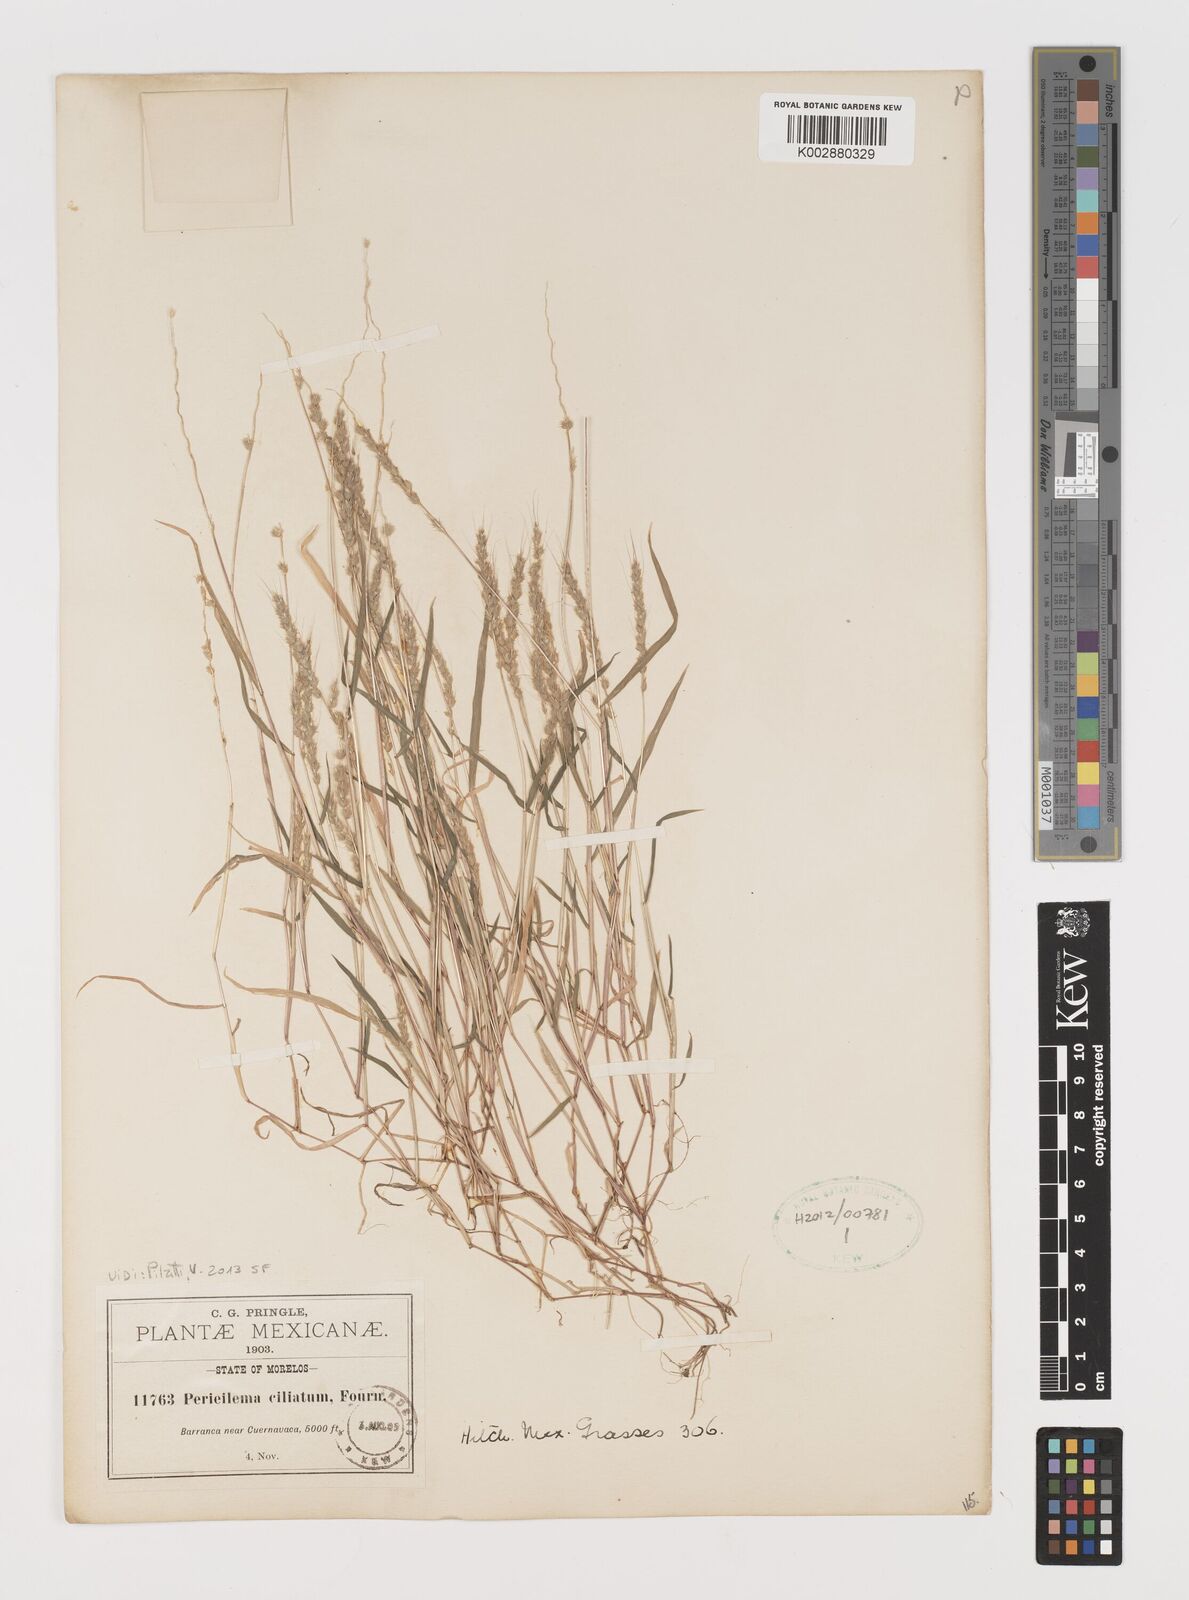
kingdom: Plantae
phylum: Tracheophyta
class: Liliopsida
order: Poales
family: Poaceae
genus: Muhlenbergia
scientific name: Muhlenbergia plumiseta
